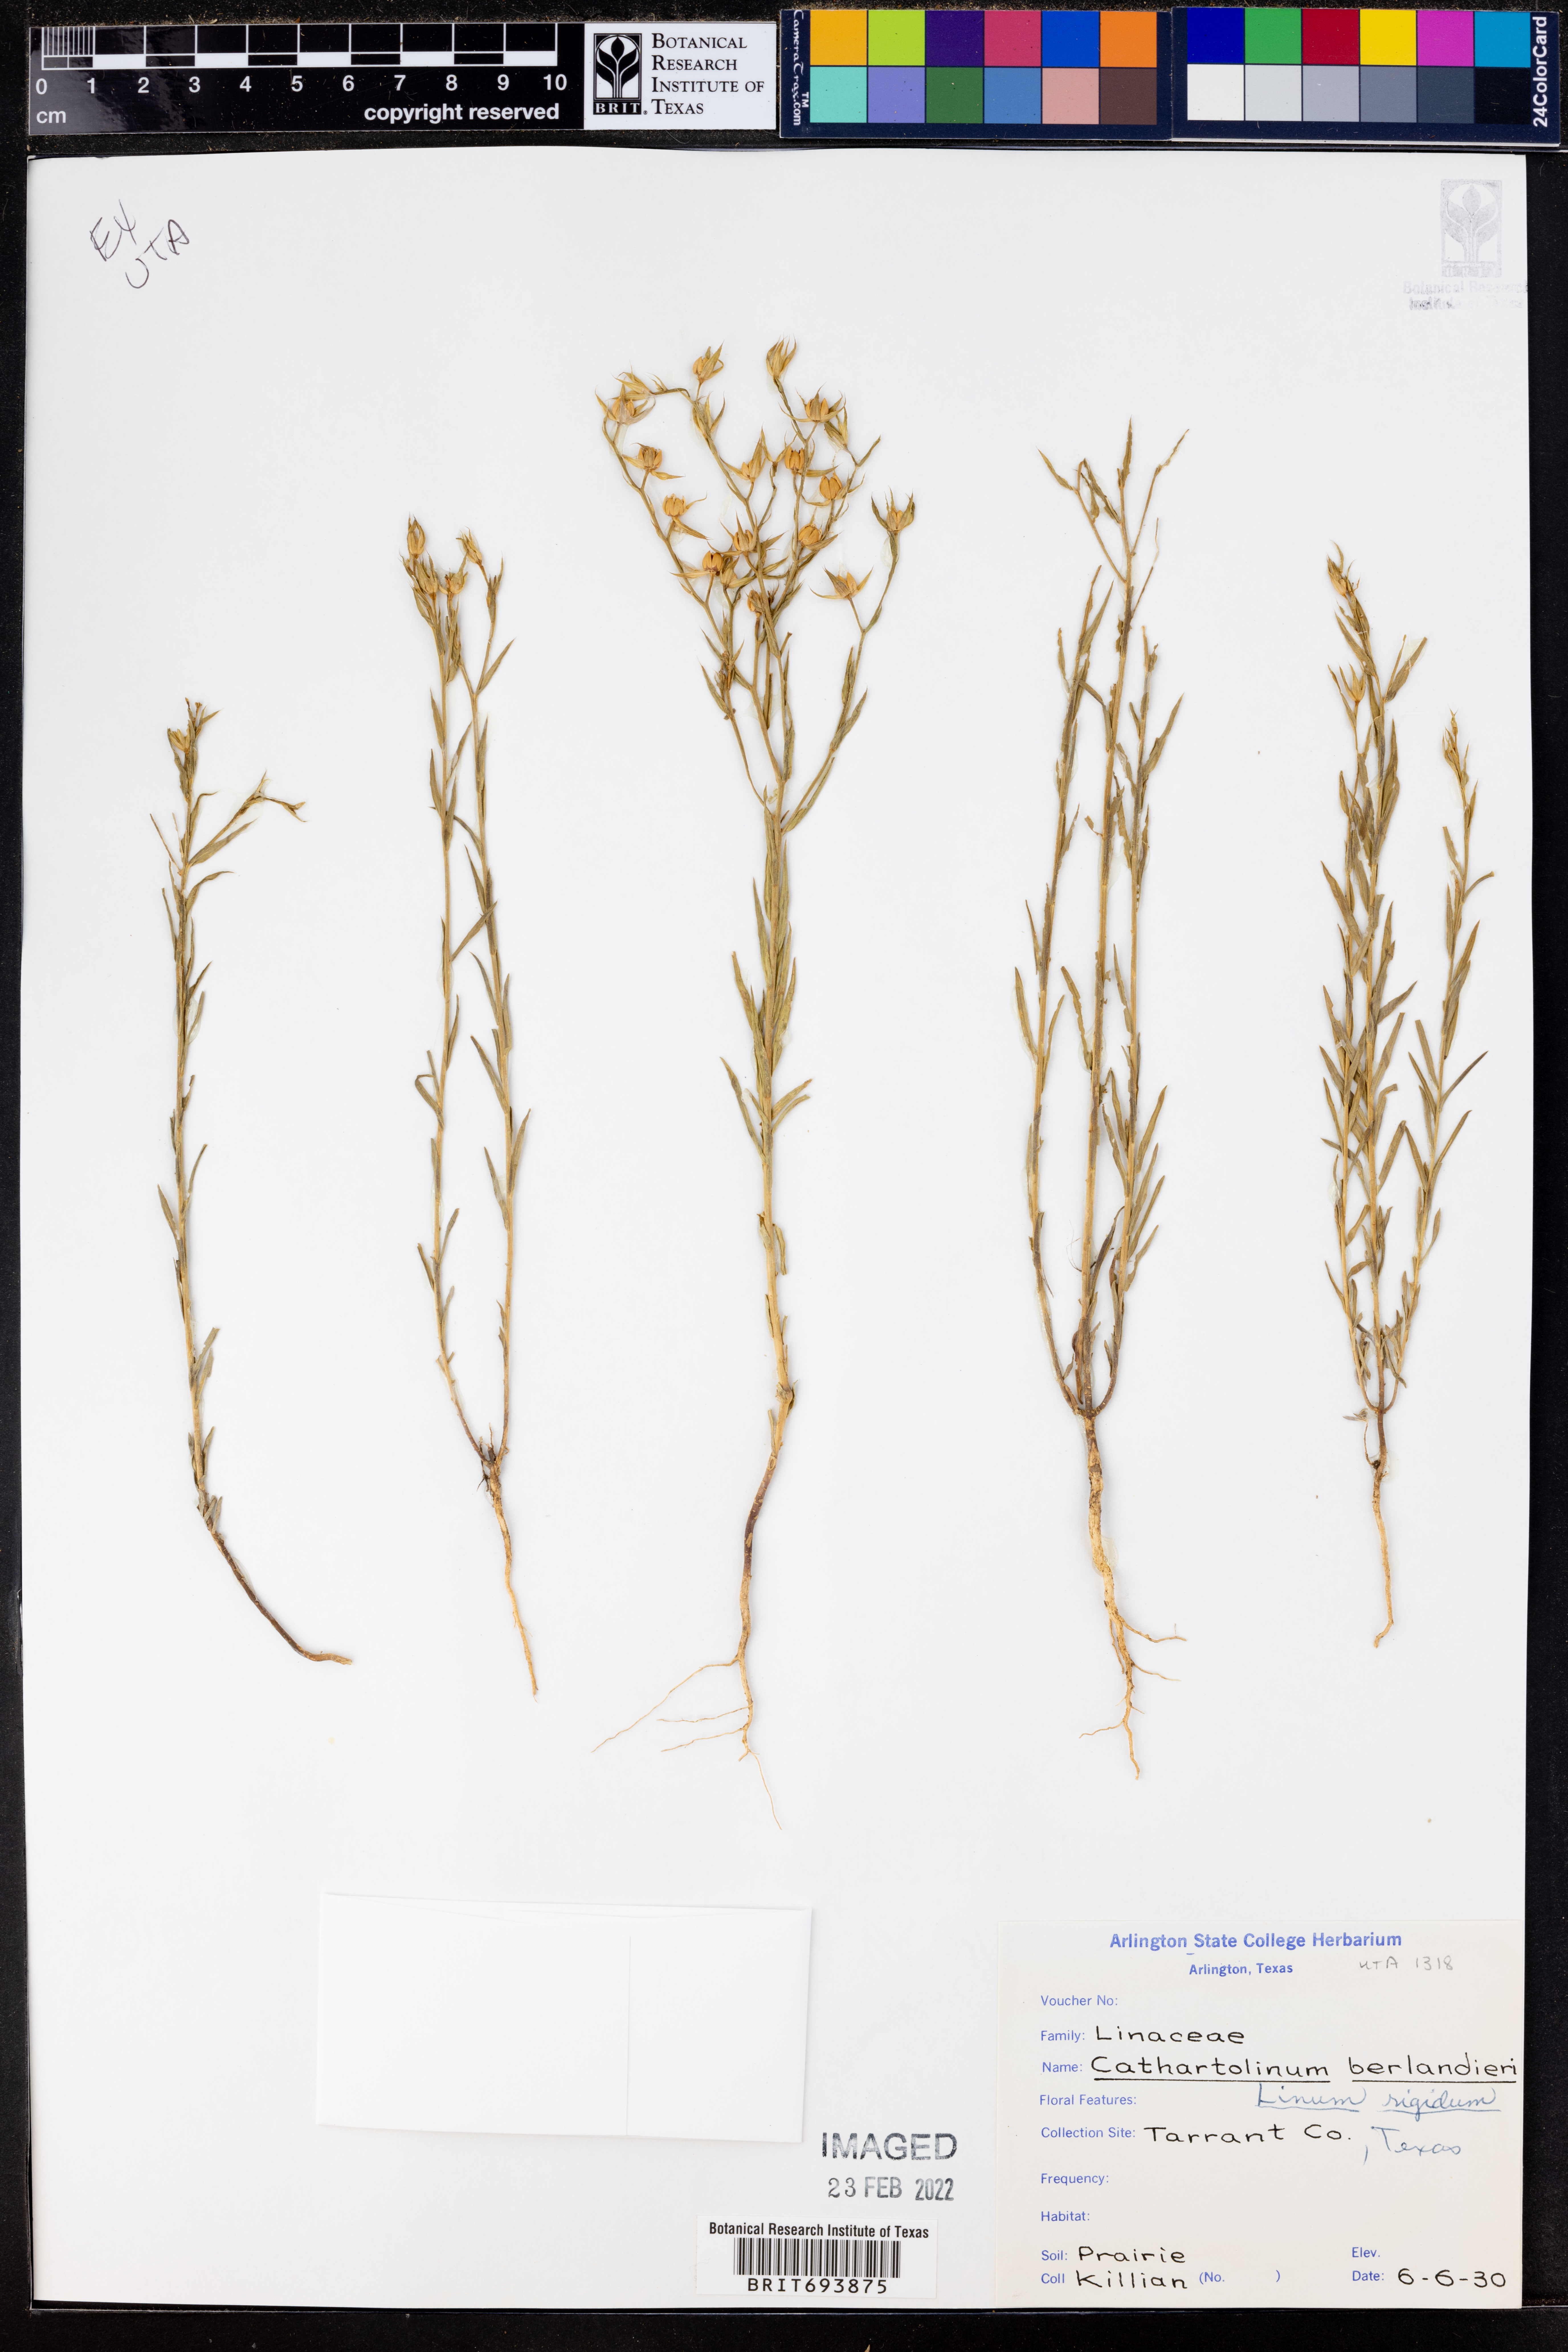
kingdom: Plantae
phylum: Tracheophyta
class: Magnoliopsida
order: Malpighiales
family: Linaceae
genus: Linum
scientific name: Linum rigidum
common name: Stiff-stem flax
